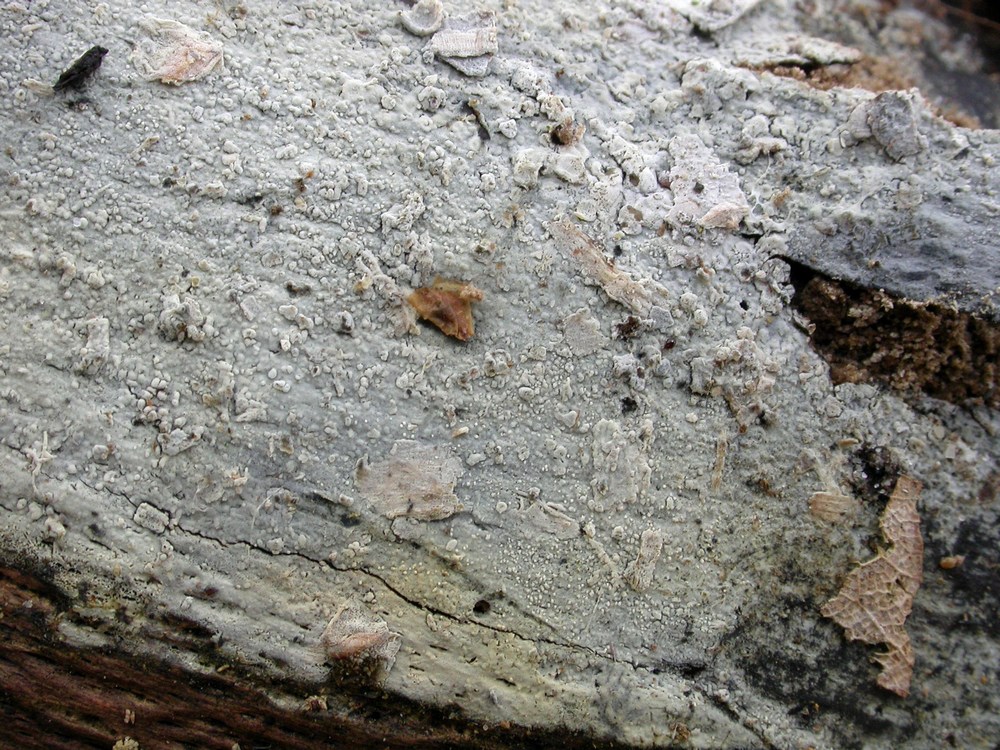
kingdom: Fungi
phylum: Basidiomycota
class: Agaricomycetes
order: Russulales
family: Xenasmataceae
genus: Xenasma
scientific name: Xenasma tulasnelloideum
